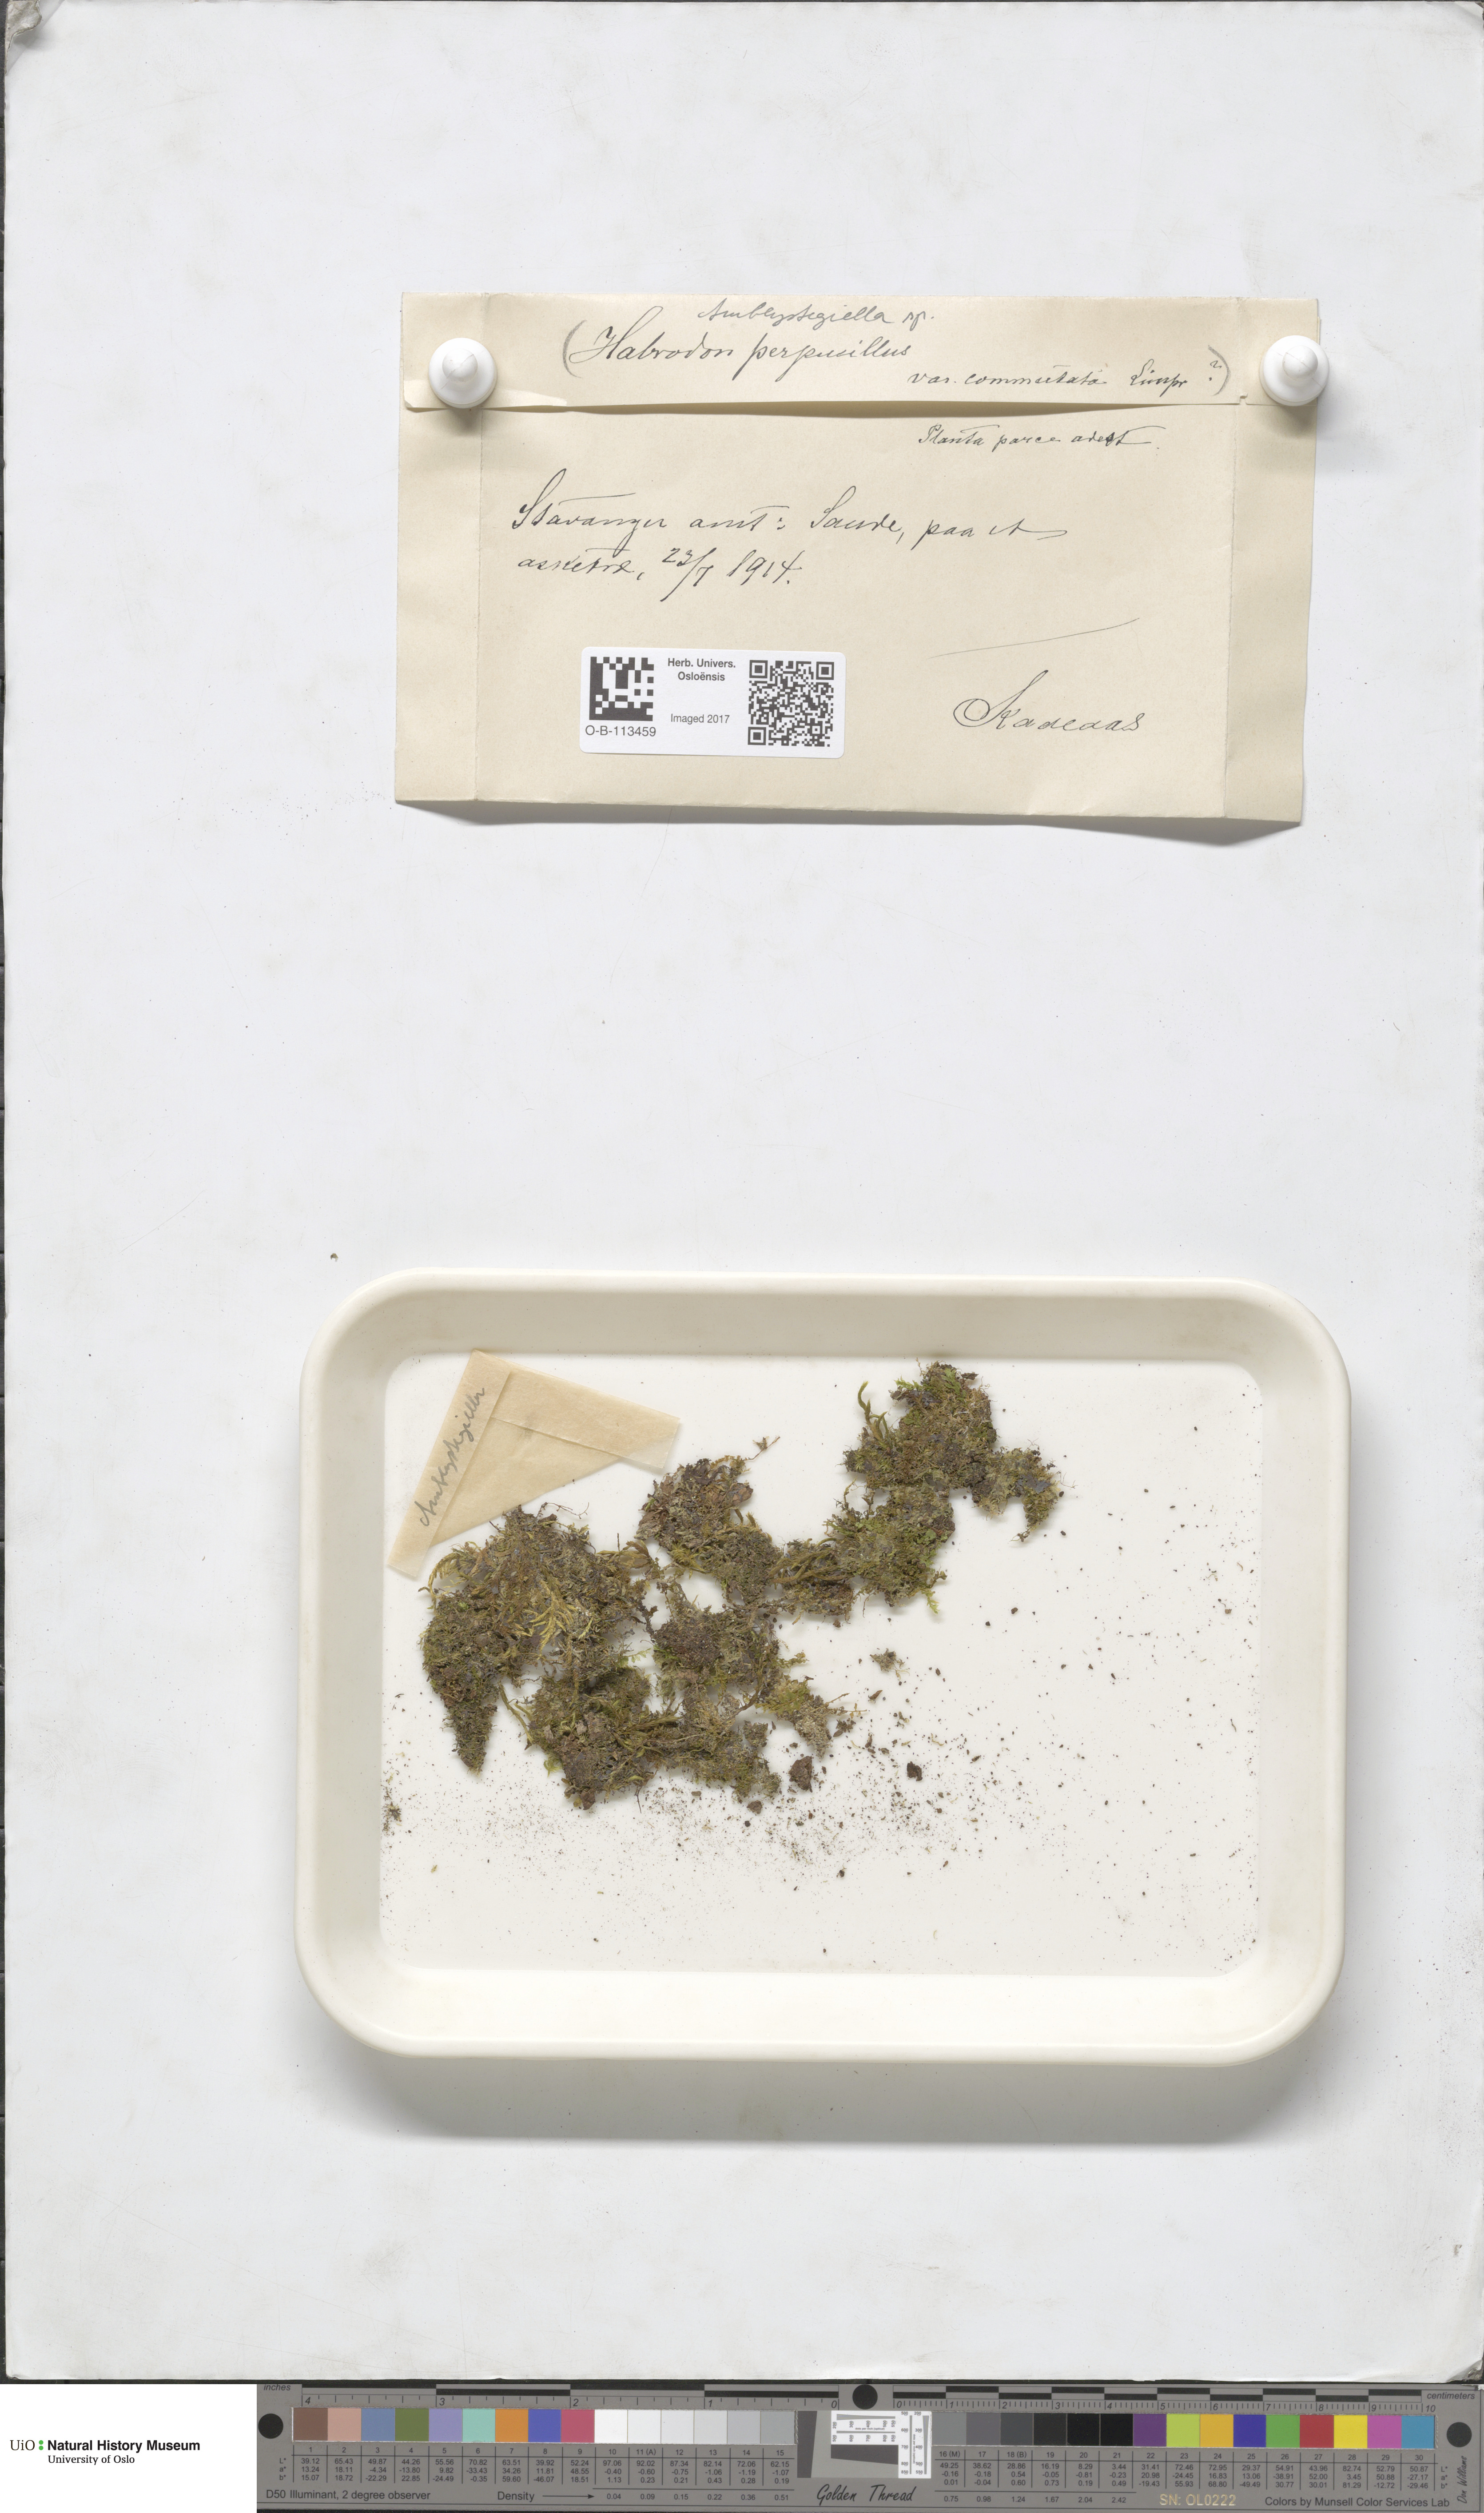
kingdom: Plantae
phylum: Bryophyta
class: Bryopsida
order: Hypnales
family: Amblystegiaceae
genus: Amblystegium
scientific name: Amblystegium
